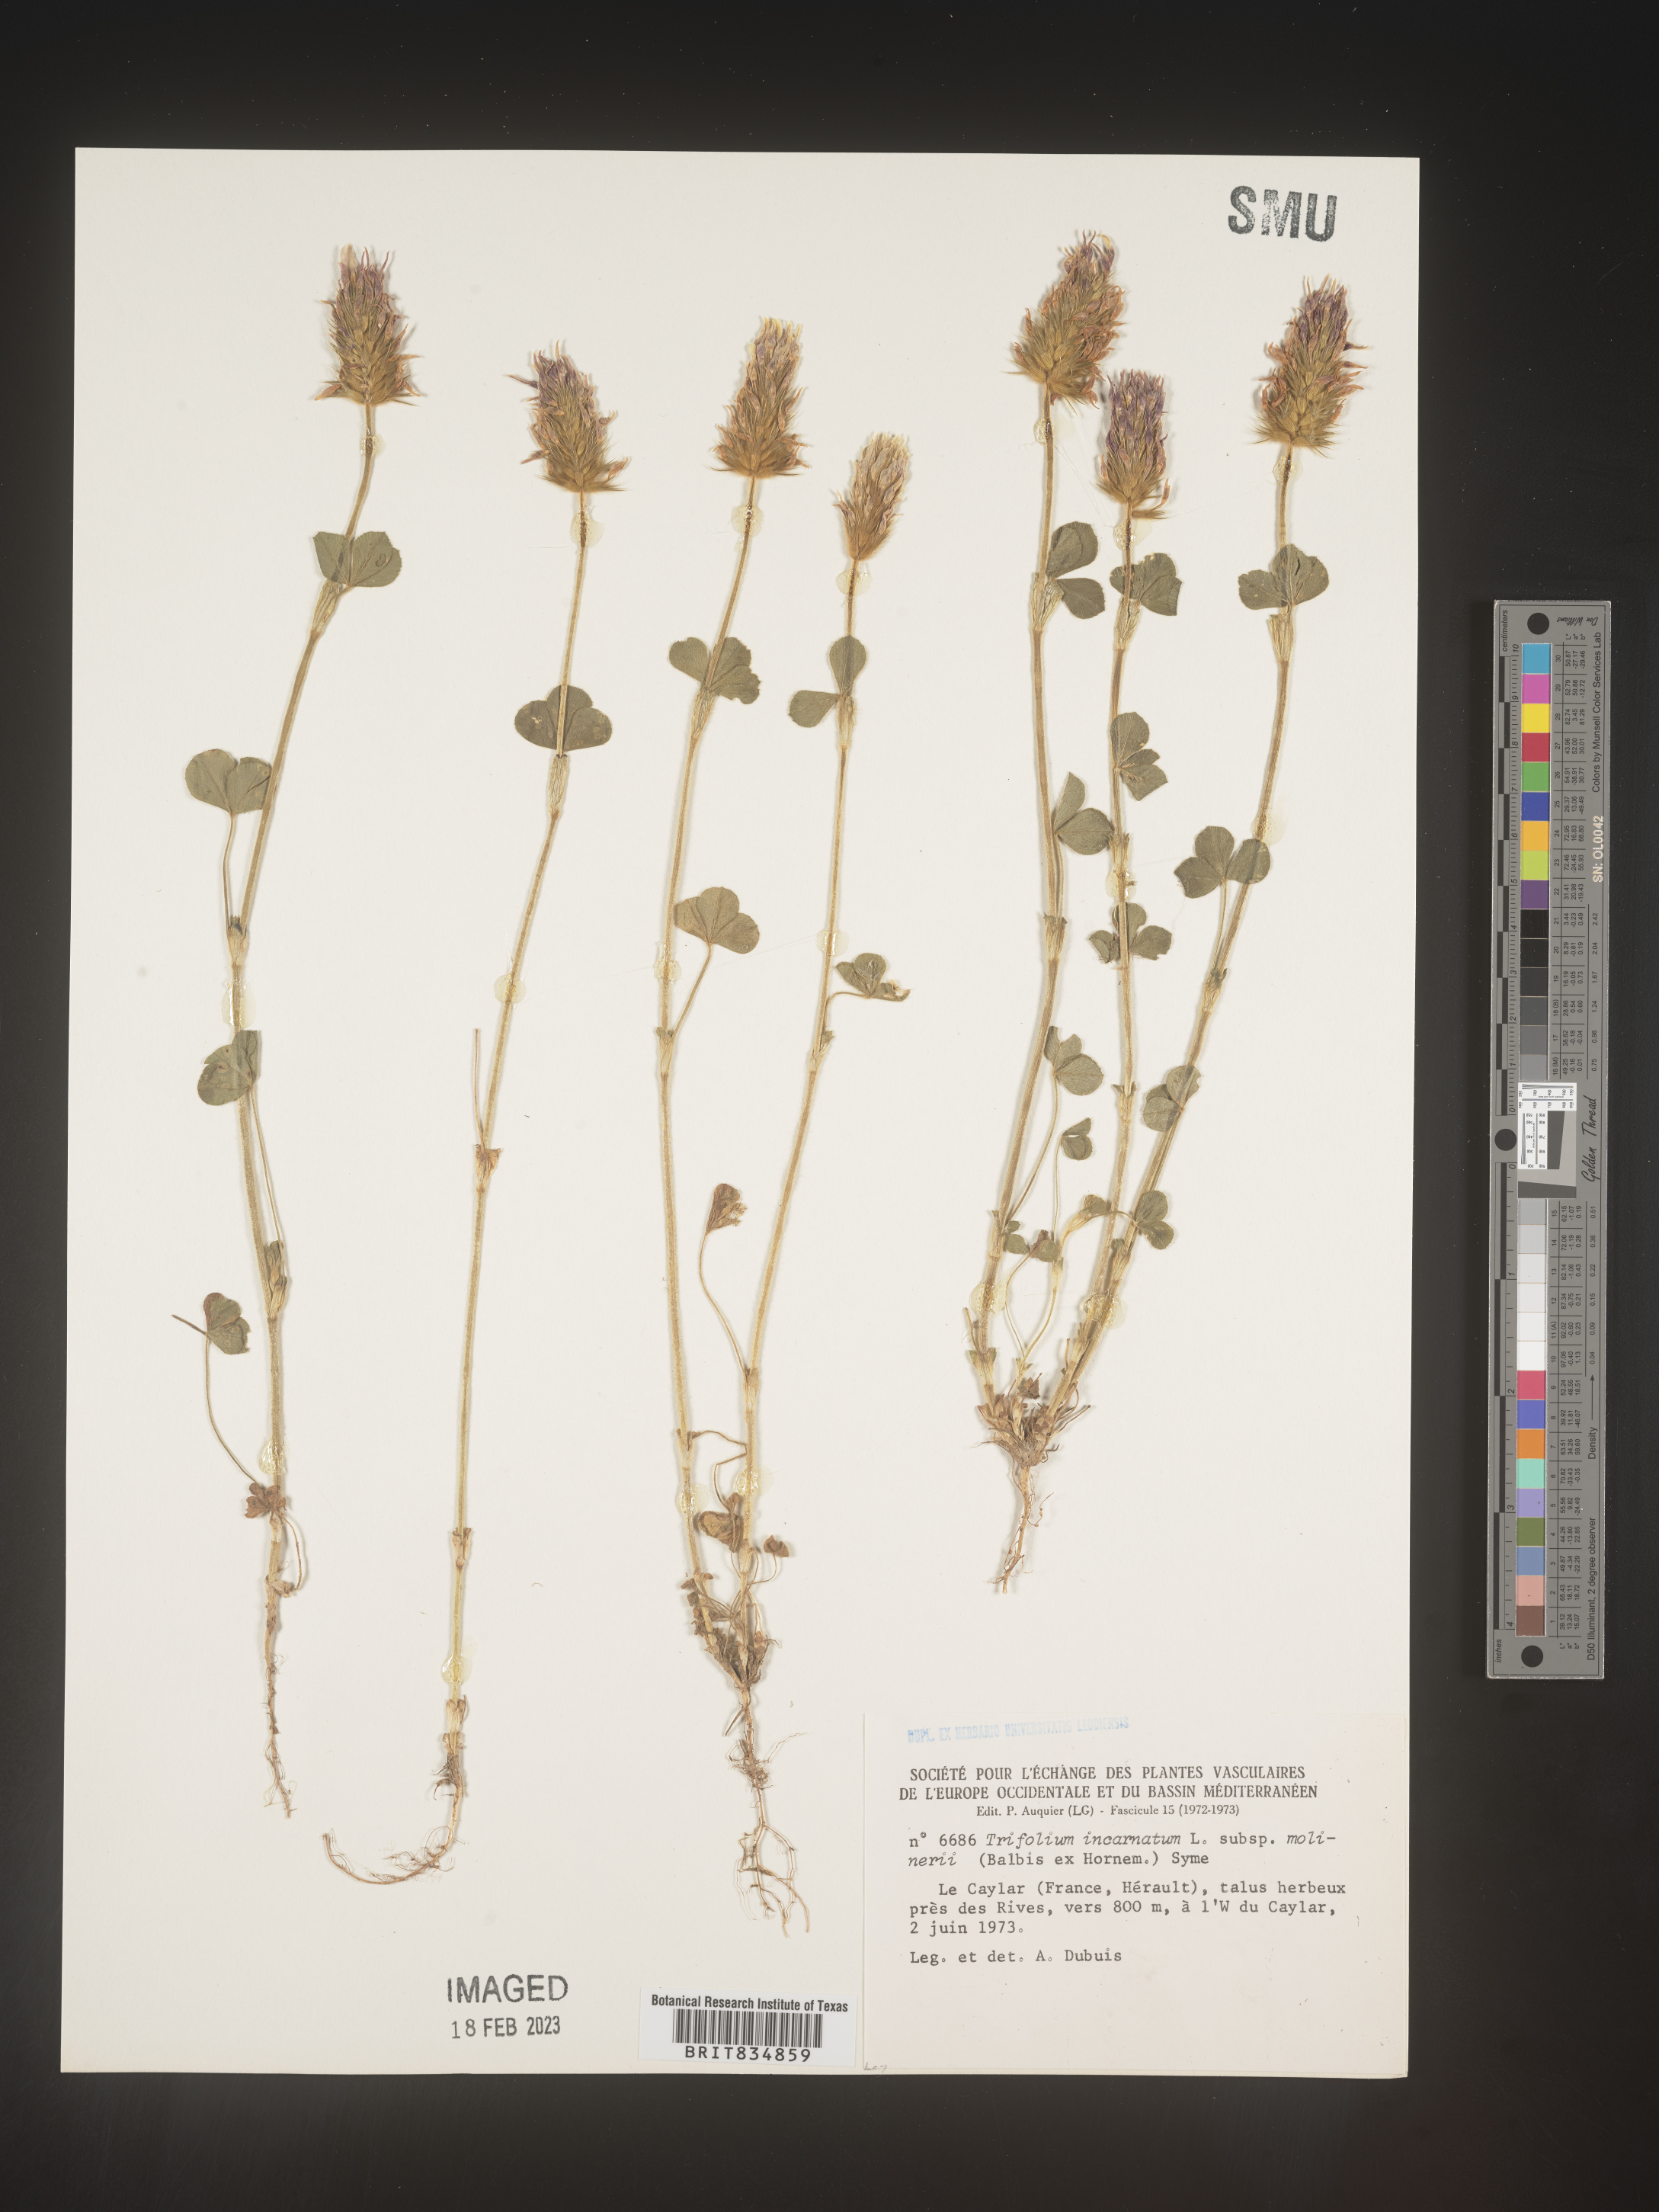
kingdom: Plantae
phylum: Tracheophyta
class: Magnoliopsida
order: Fabales
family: Fabaceae
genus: Trifolium
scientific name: Trifolium incarnatum
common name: Crimson clover
